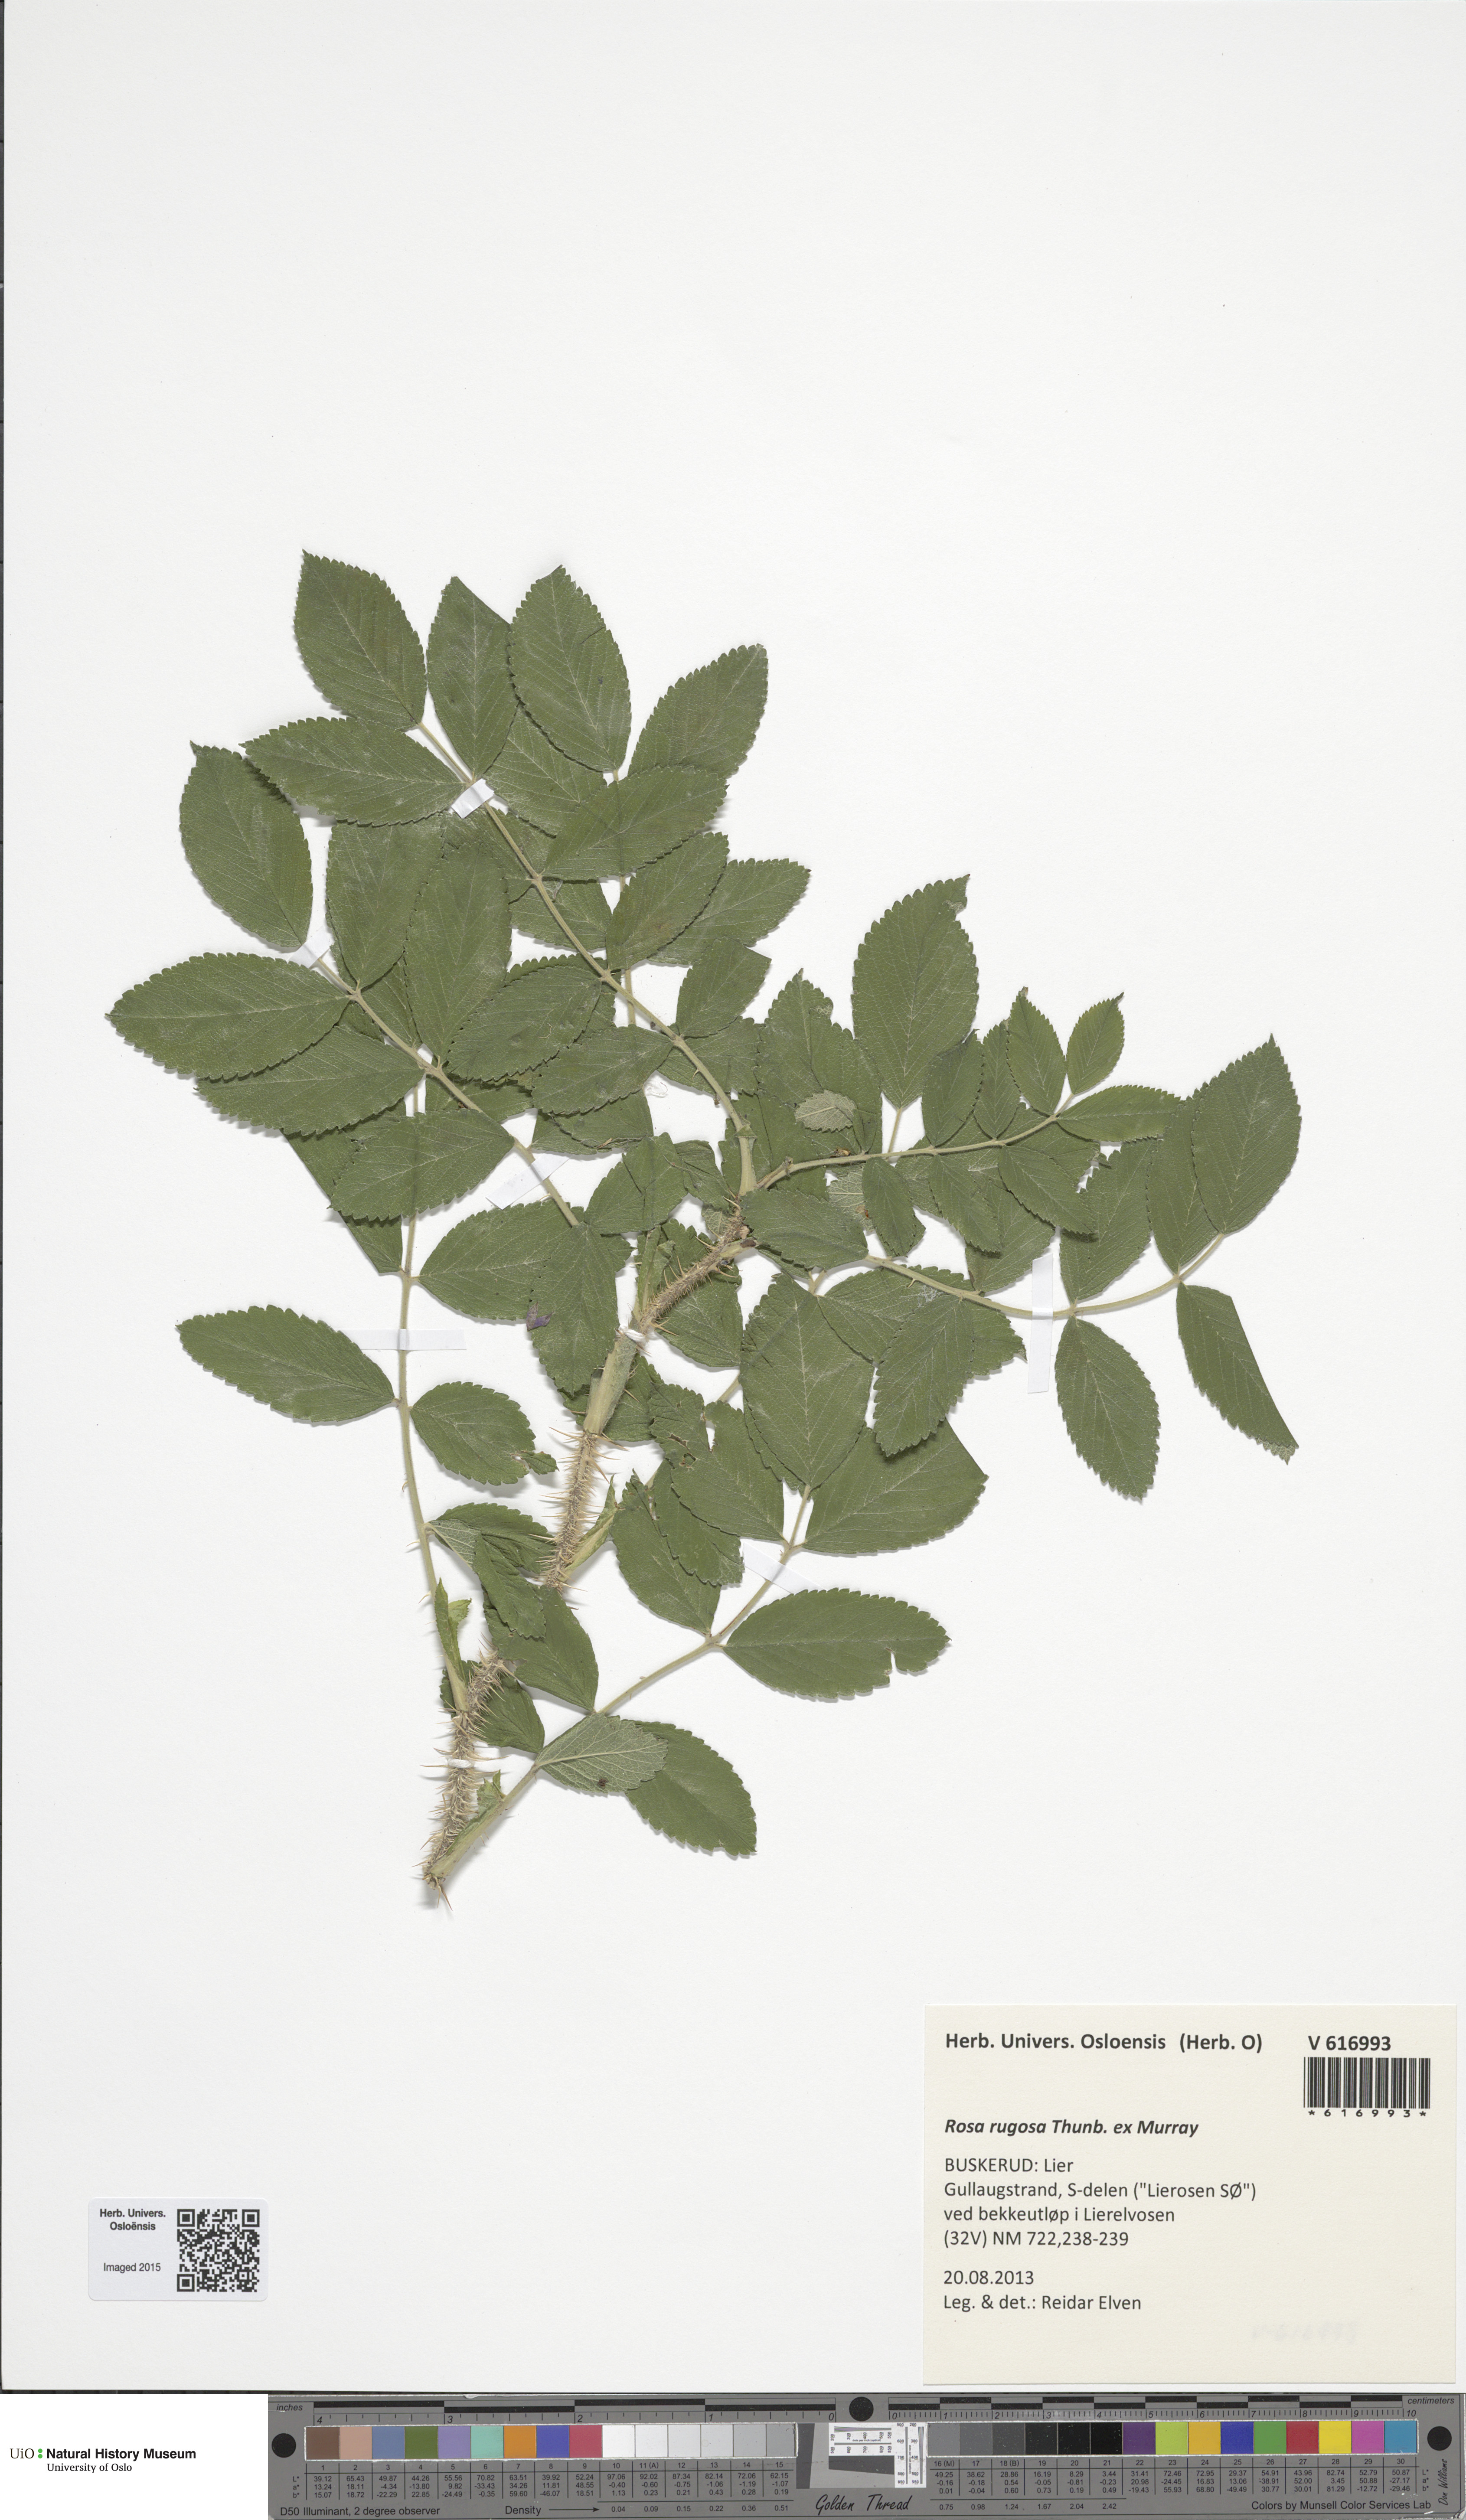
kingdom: Plantae
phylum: Tracheophyta
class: Magnoliopsida
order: Rosales
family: Rosaceae
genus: Rosa
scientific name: Rosa rugosa
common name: Japanese rose
